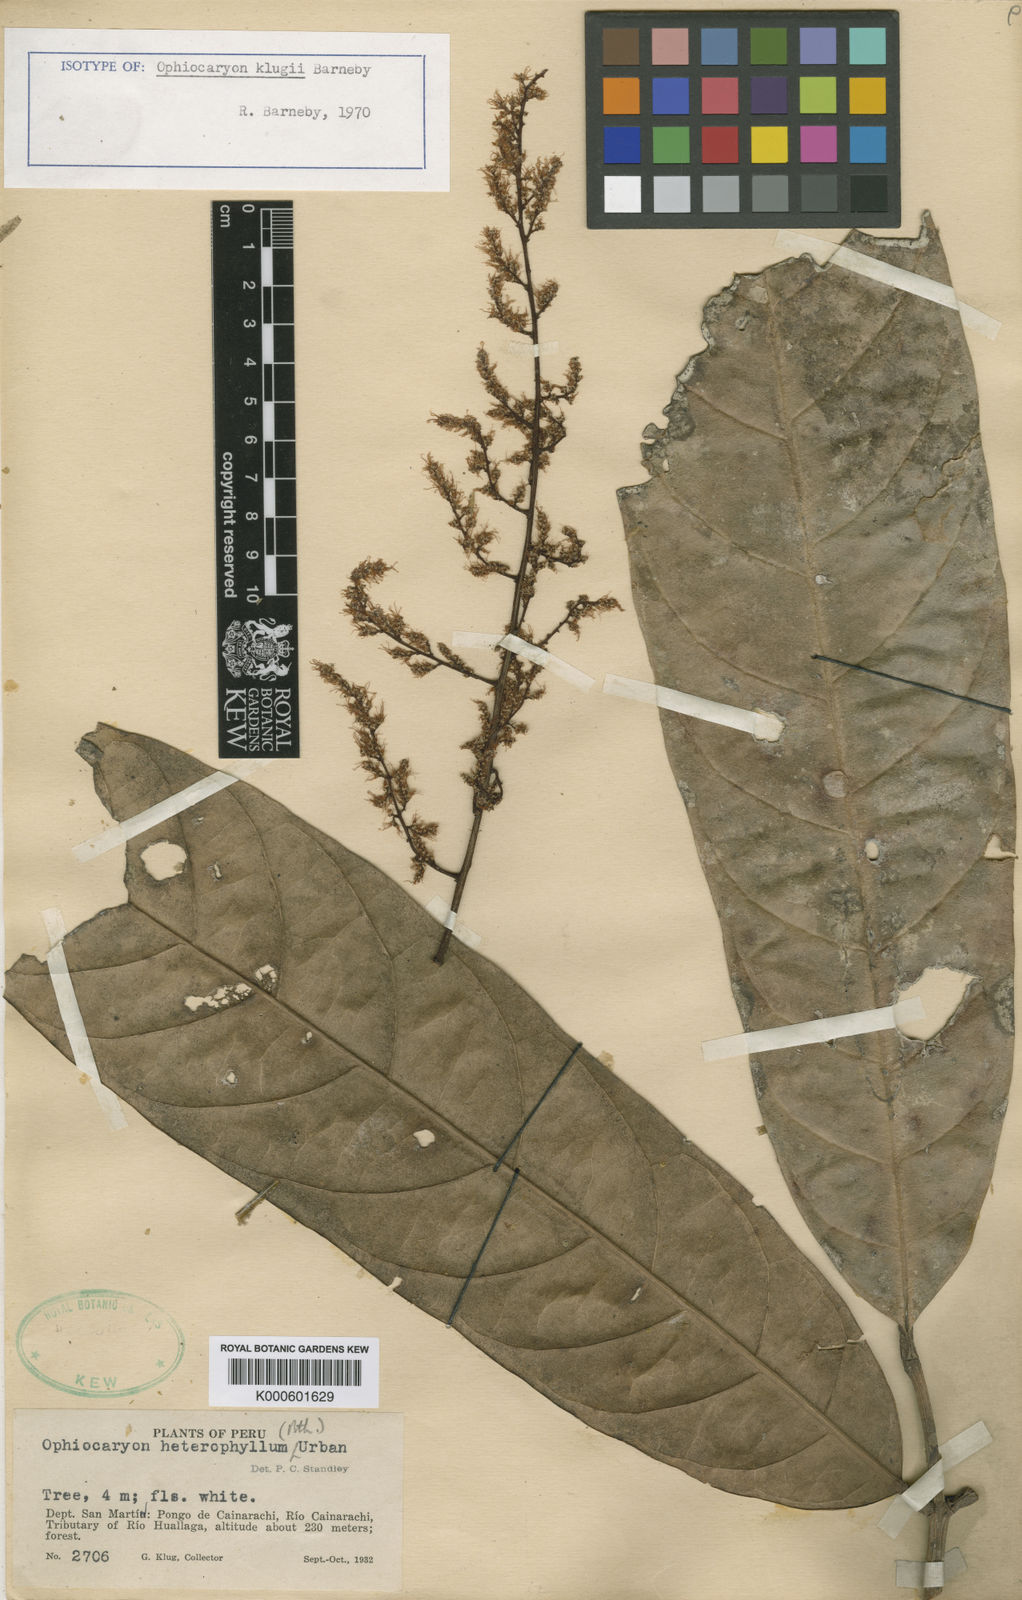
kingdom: Plantae
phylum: Tracheophyta
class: Magnoliopsida
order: Proteales
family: Sabiaceae
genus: Ophiocaryon
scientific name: Ophiocaryon klugii
